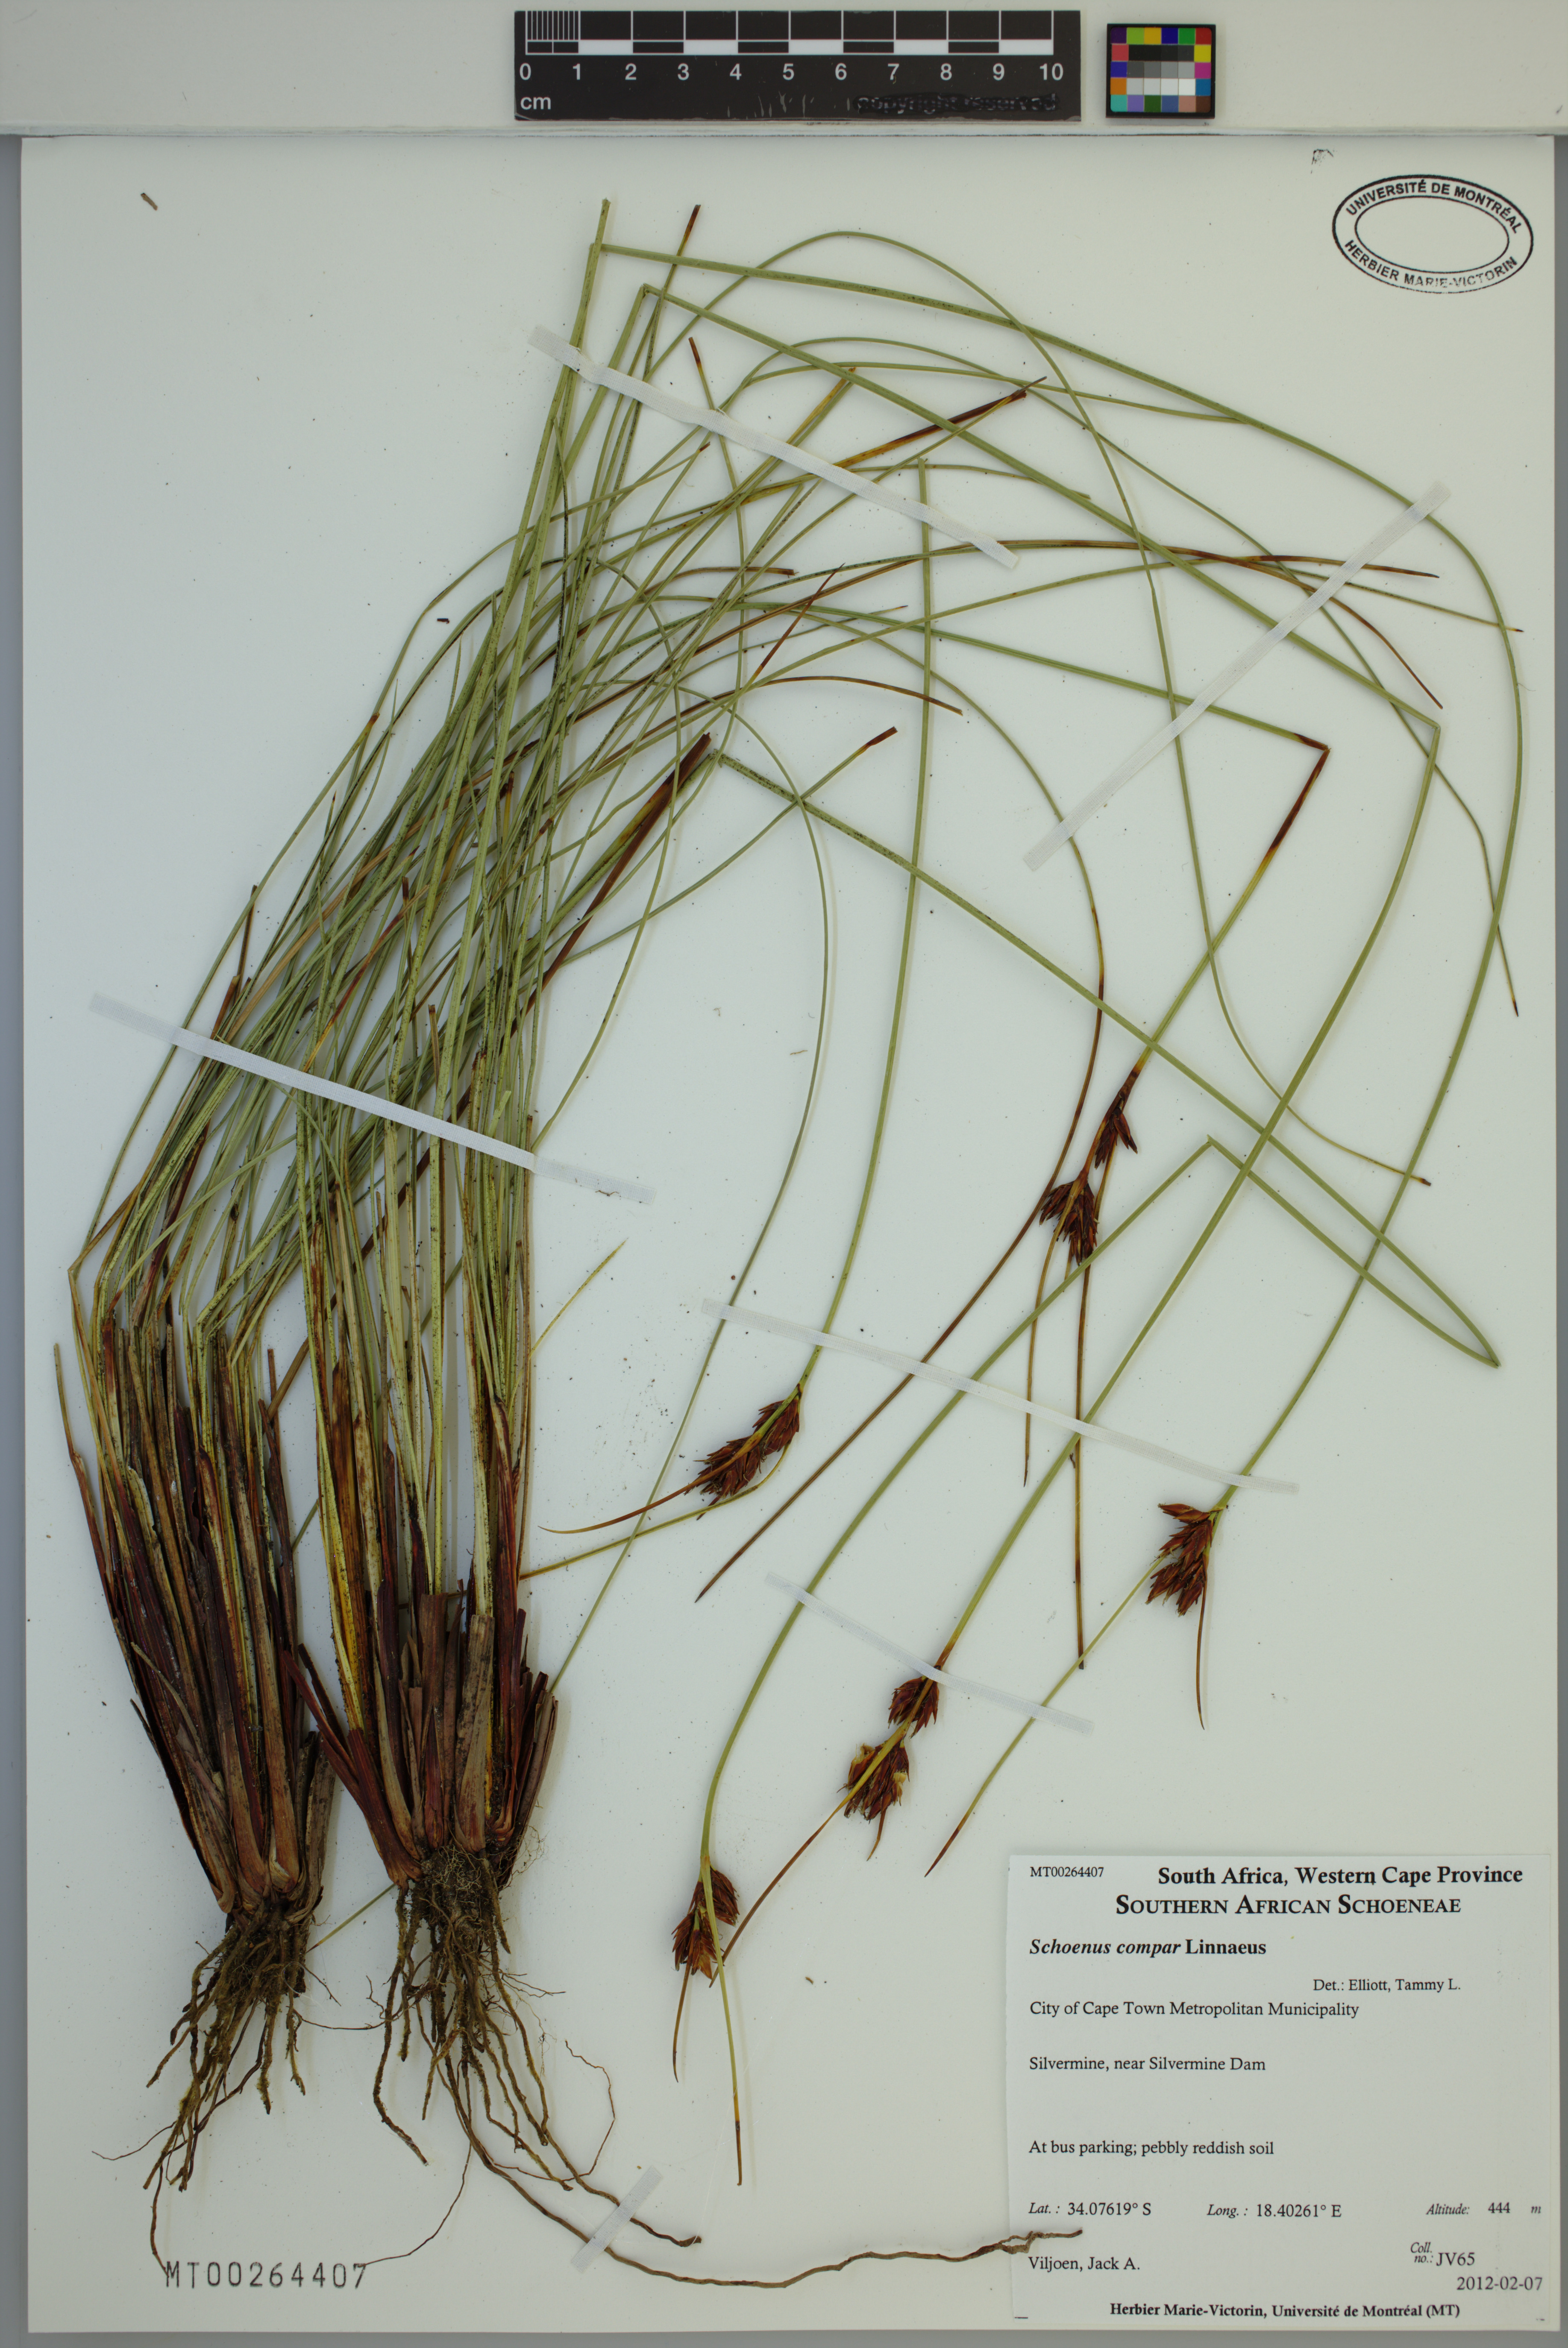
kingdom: Plantae
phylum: Tracheophyta
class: Liliopsida
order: Poales
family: Cyperaceae
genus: Schoenus
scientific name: Schoenus compar
